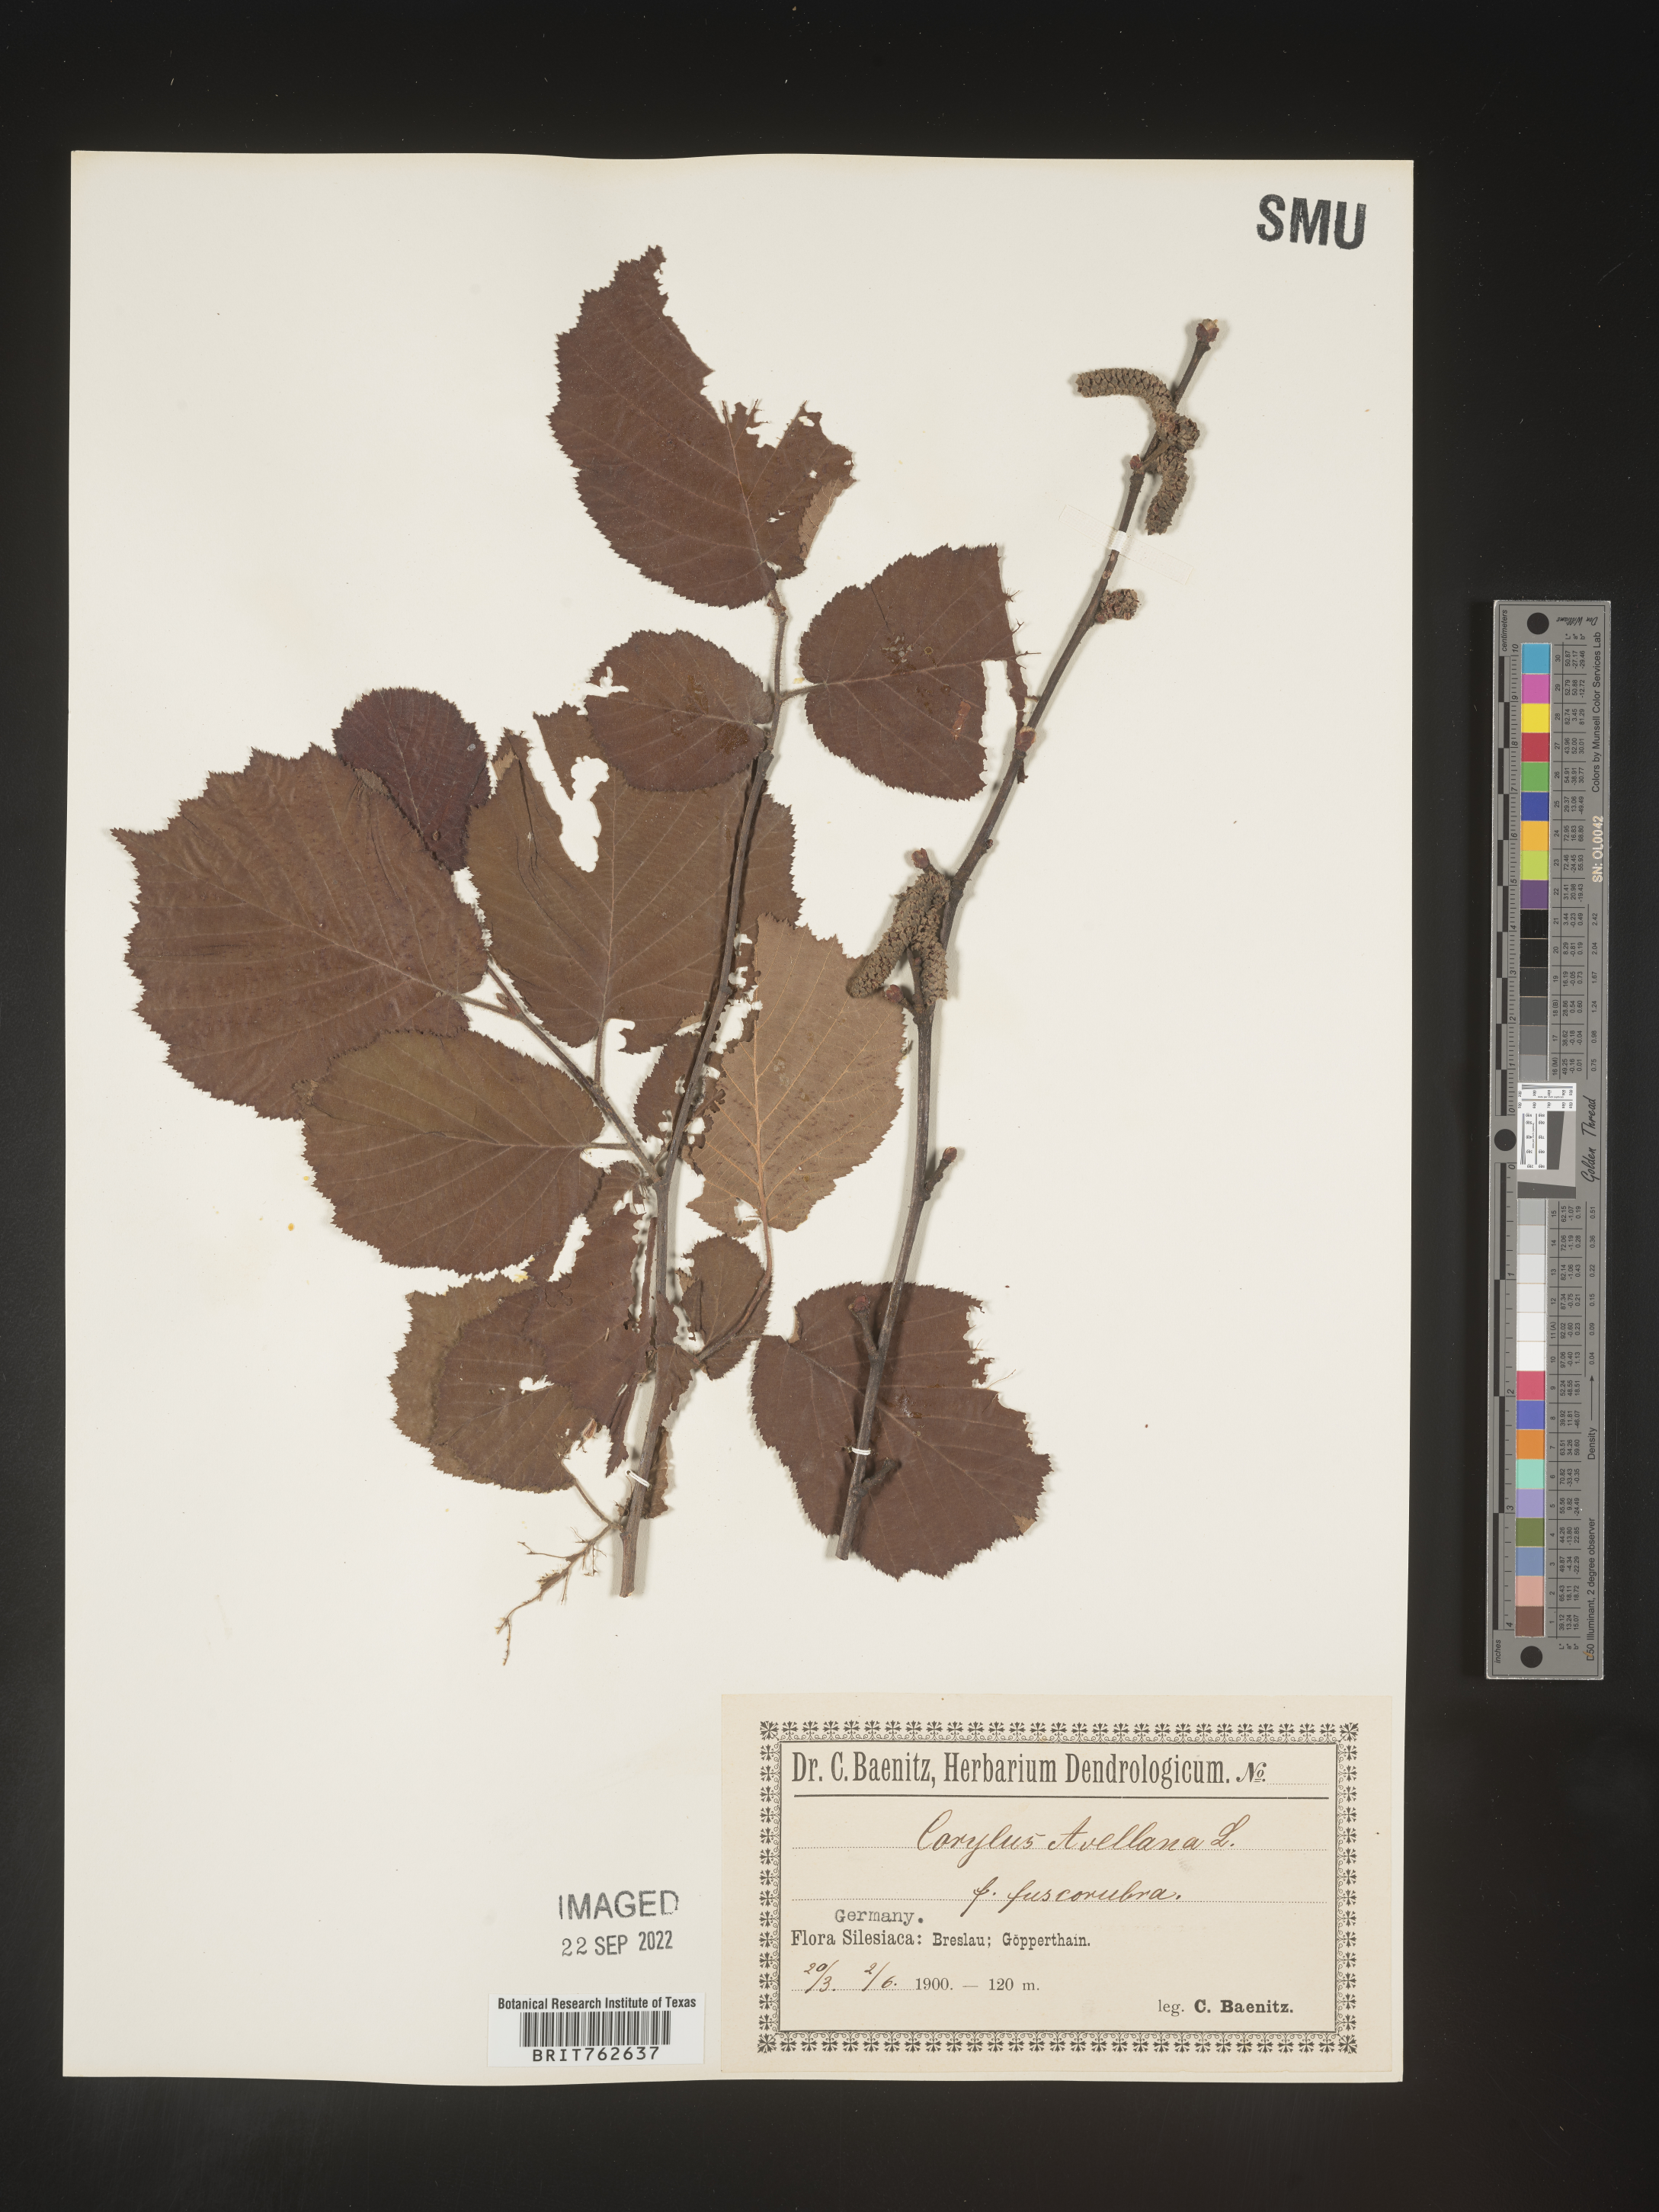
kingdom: Plantae
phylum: Tracheophyta
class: Magnoliopsida
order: Fagales
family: Betulaceae
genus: Corylus
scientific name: Corylus
